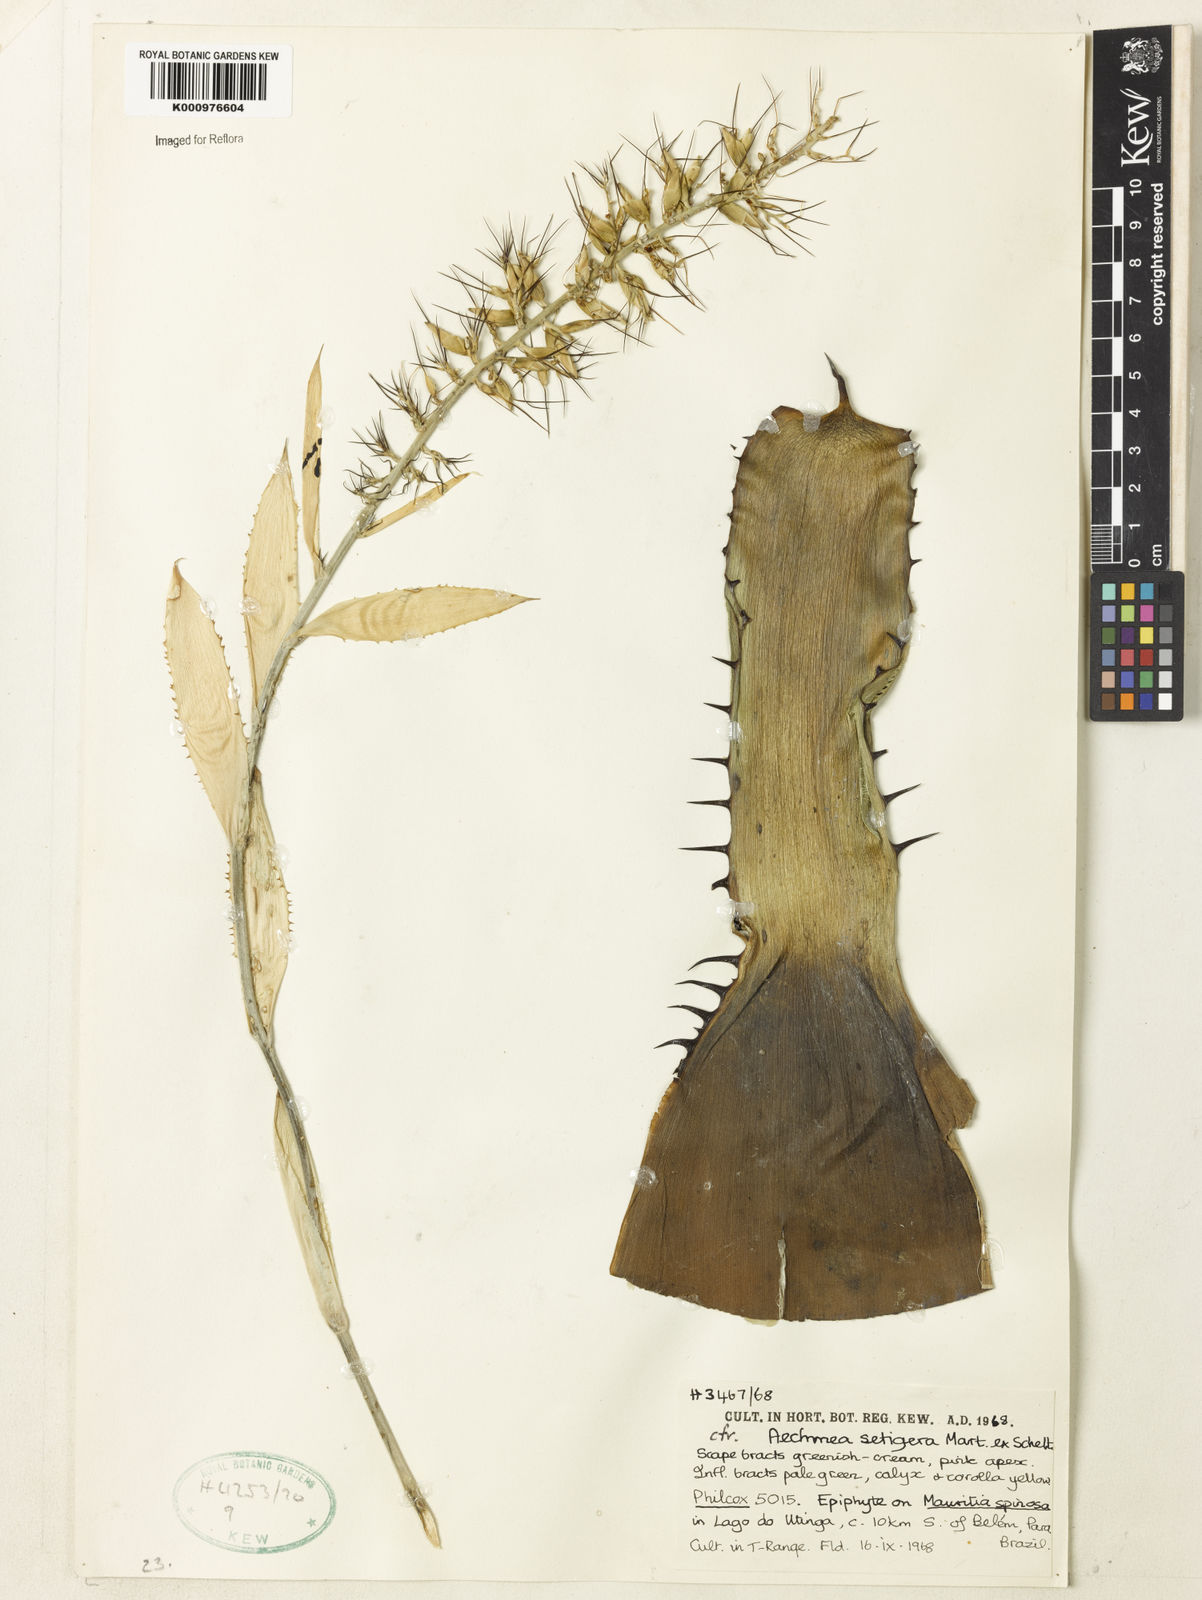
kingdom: Plantae
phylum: Tracheophyta
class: Liliopsida
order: Poales
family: Bromeliaceae
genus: Aechmea
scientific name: Aechmea setigera
